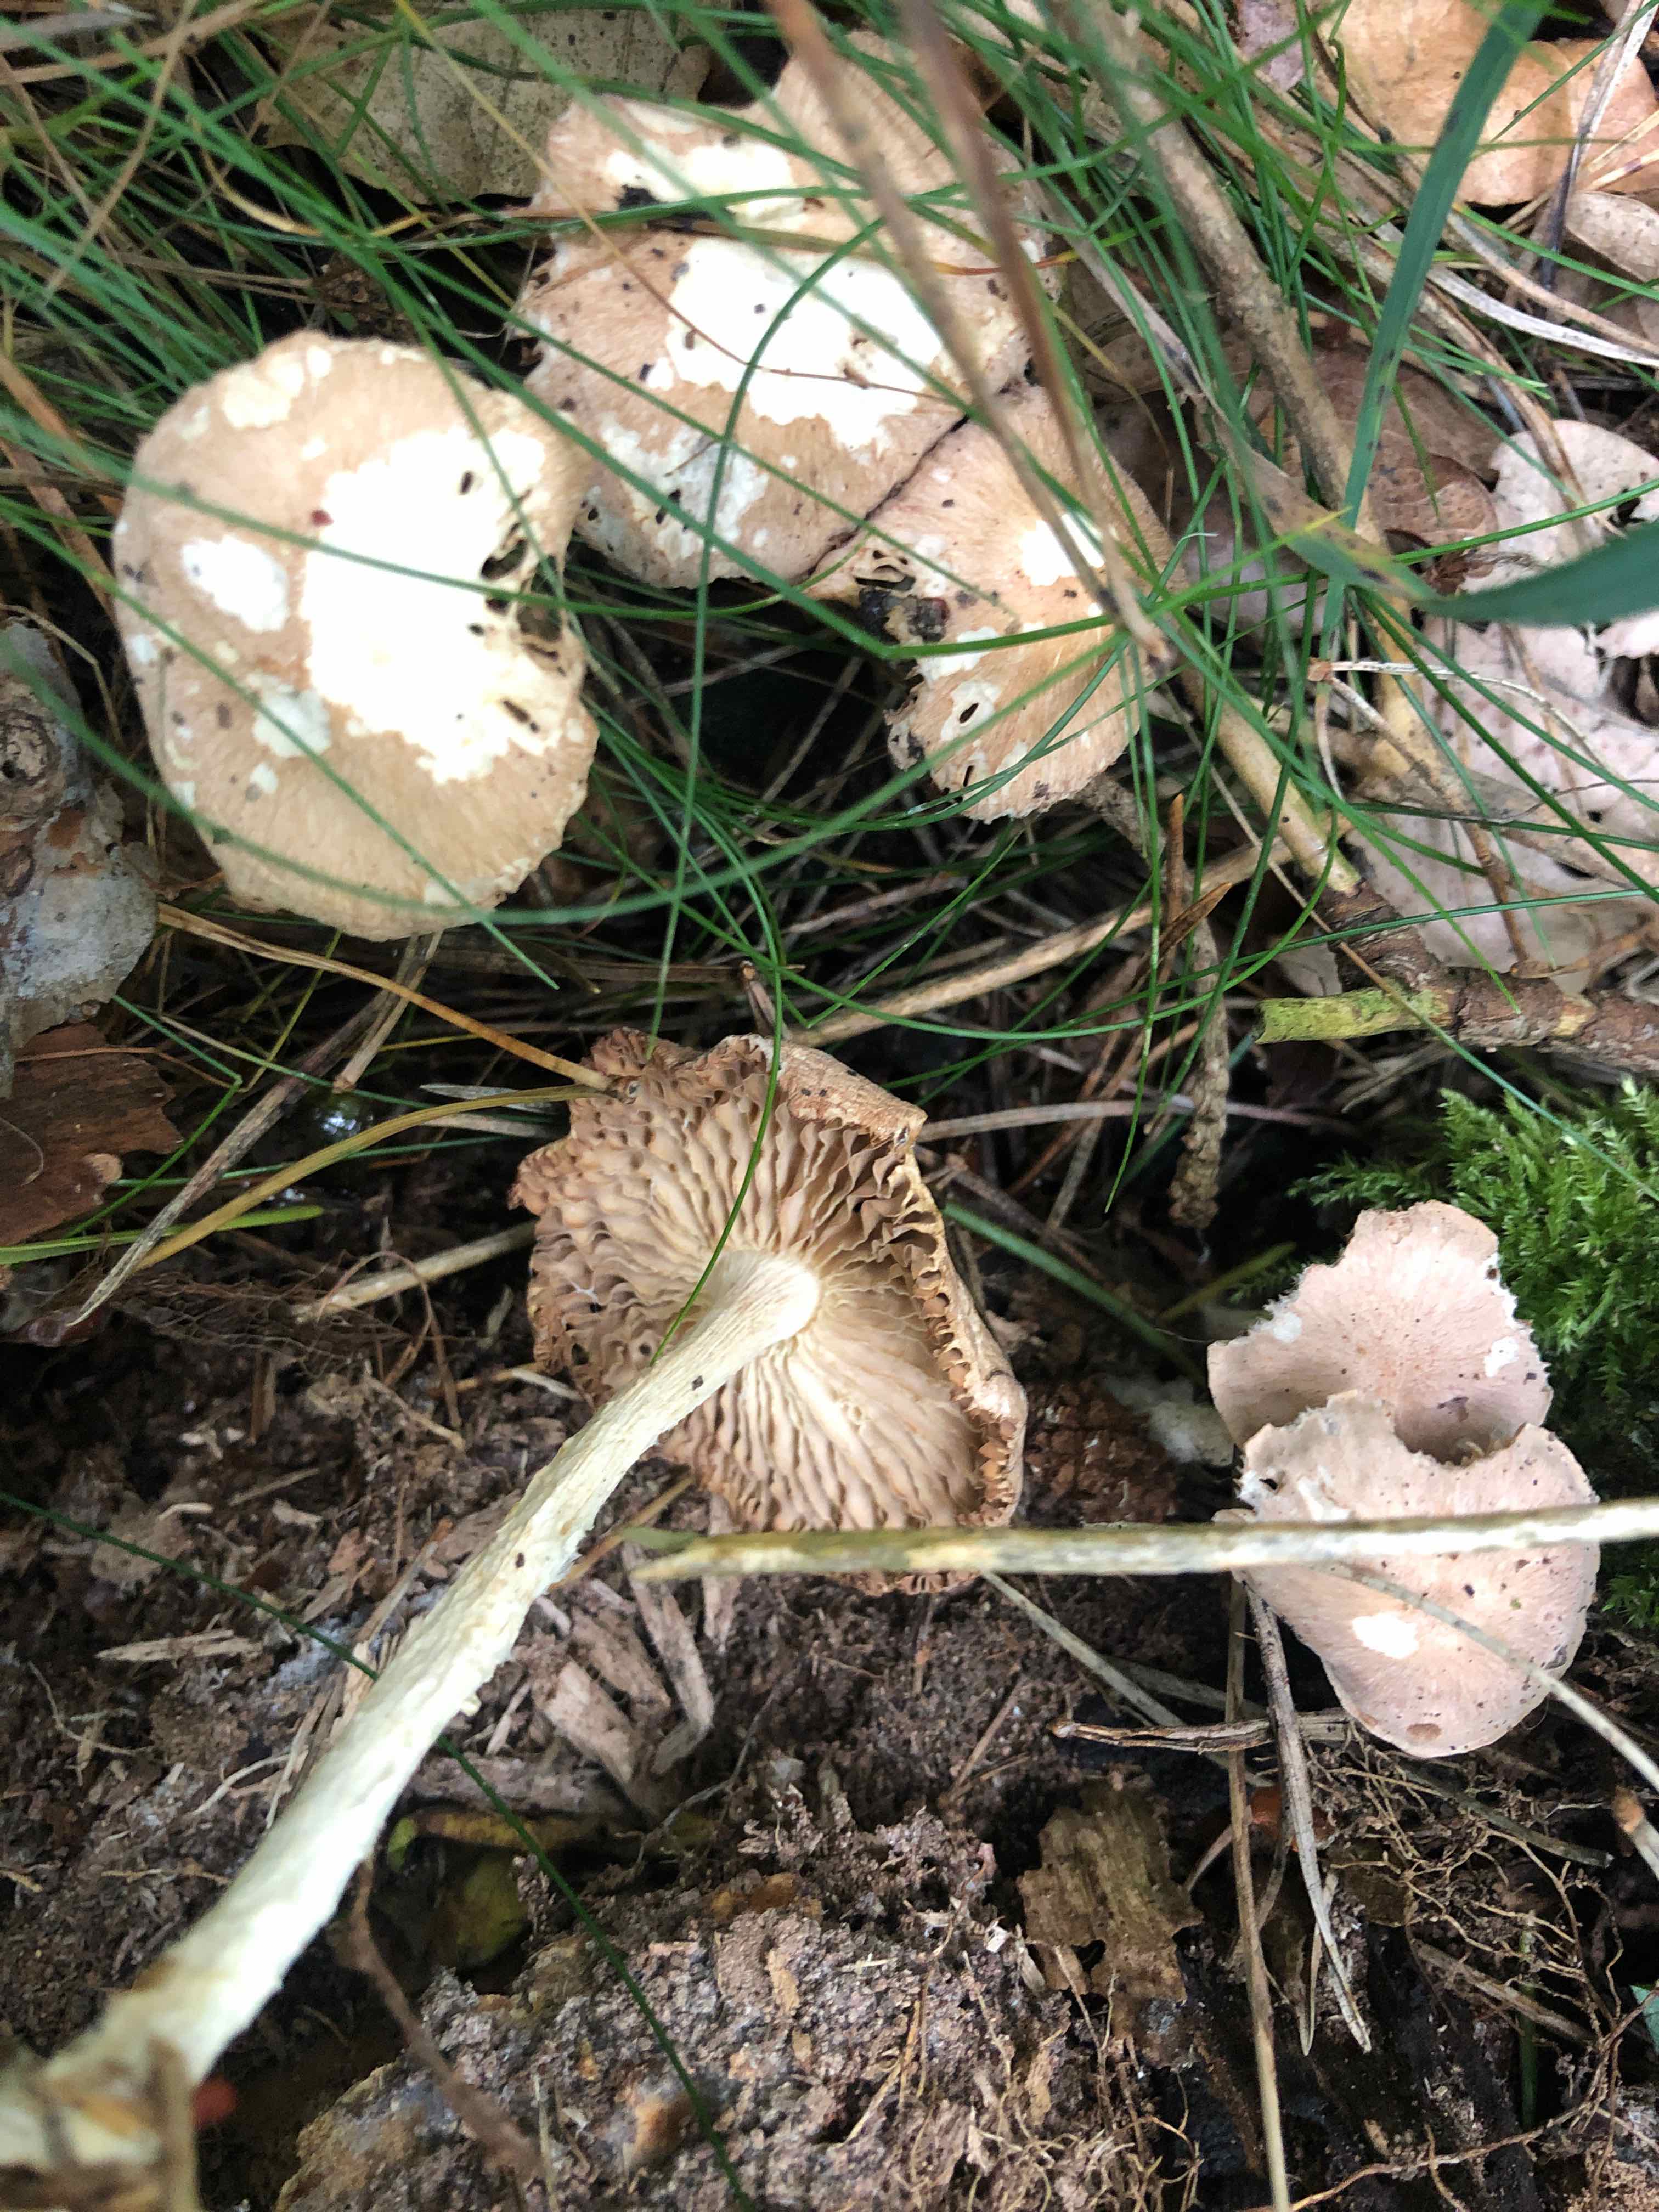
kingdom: Fungi
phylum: Basidiomycota
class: Agaricomycetes
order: Agaricales
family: Omphalotaceae
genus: Collybiopsis
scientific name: Collybiopsis peronata
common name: bestøvlet fladhat
